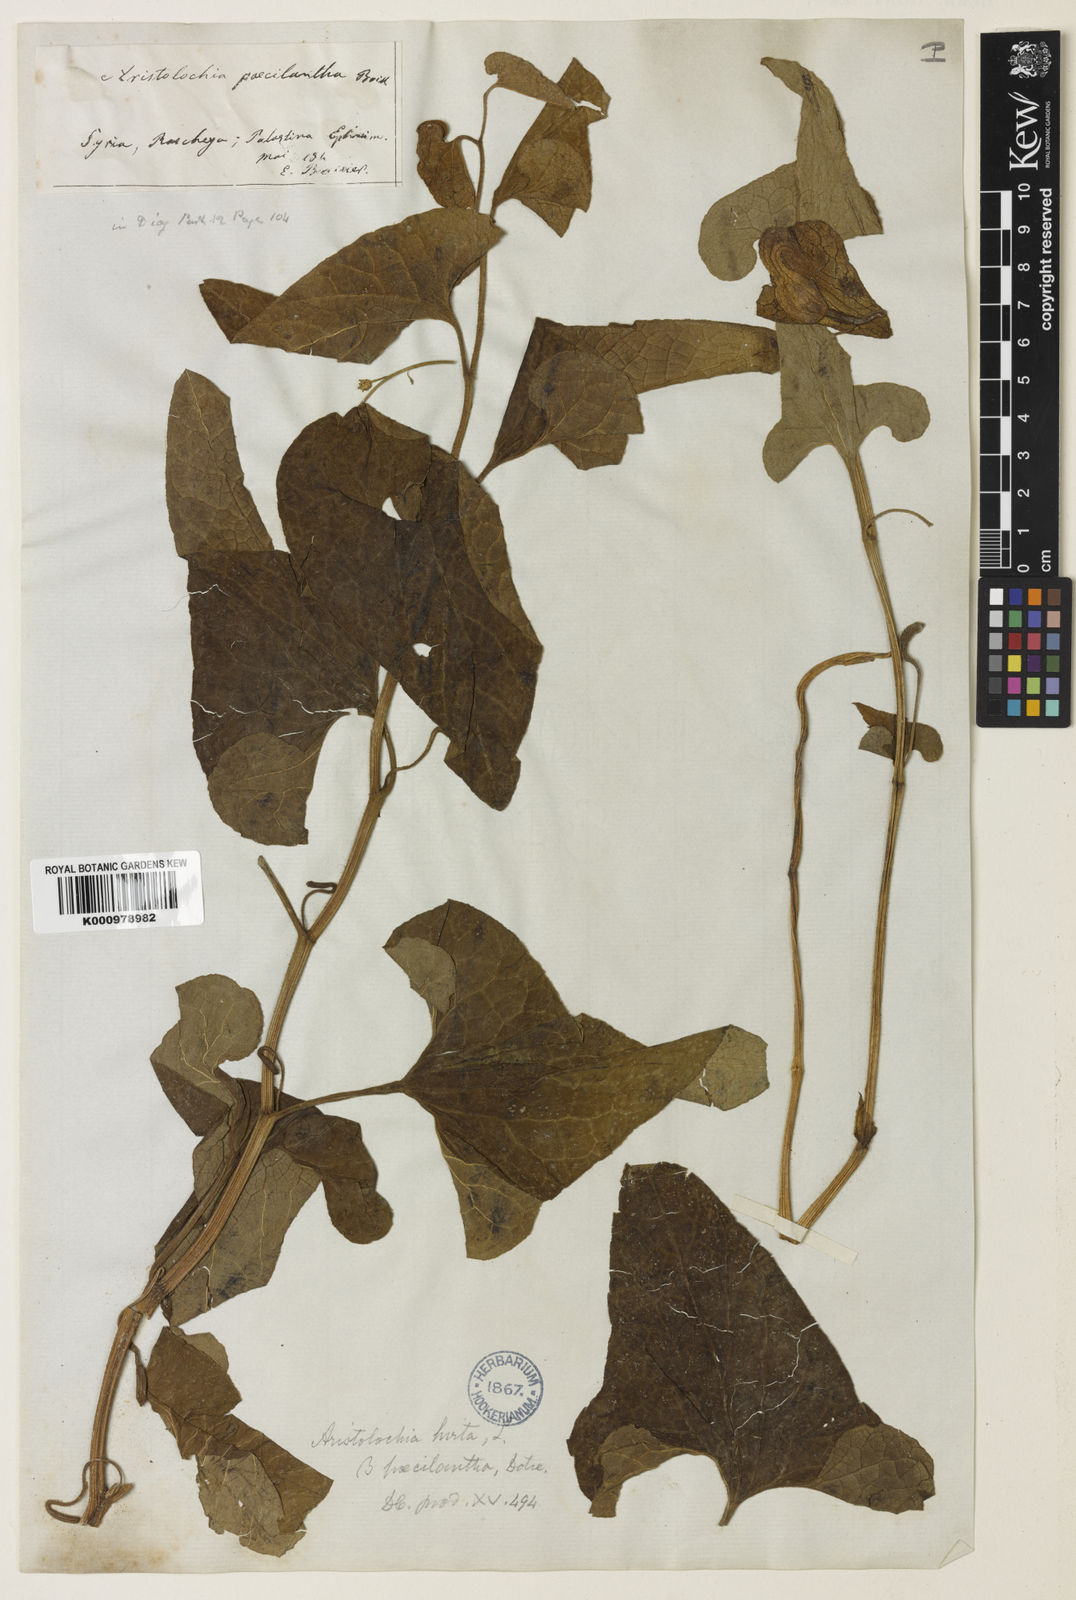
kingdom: Plantae
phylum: Tracheophyta
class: Magnoliopsida
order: Piperales
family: Aristolochiaceae
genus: Aristolochia
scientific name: Aristolochia paecilantha
